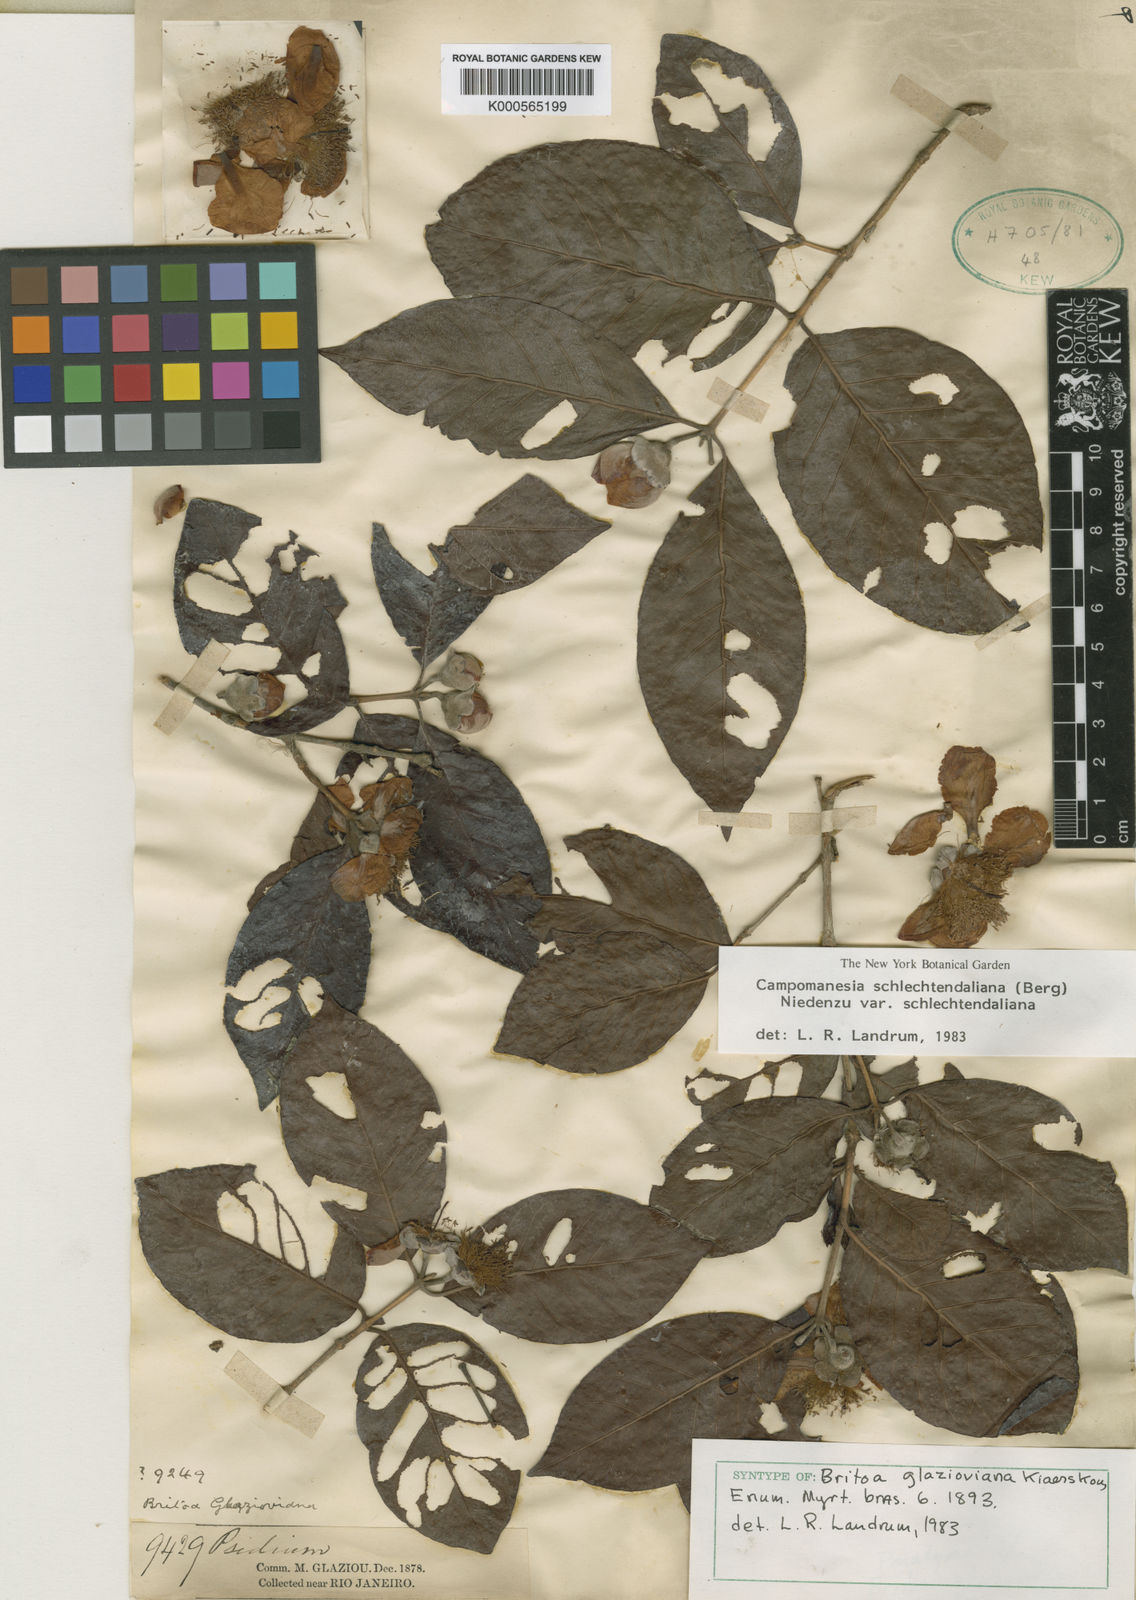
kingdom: Plantae
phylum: Tracheophyta
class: Magnoliopsida
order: Myrtales
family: Myrtaceae
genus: Campomanesia
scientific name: Campomanesia schlechtendaliana
